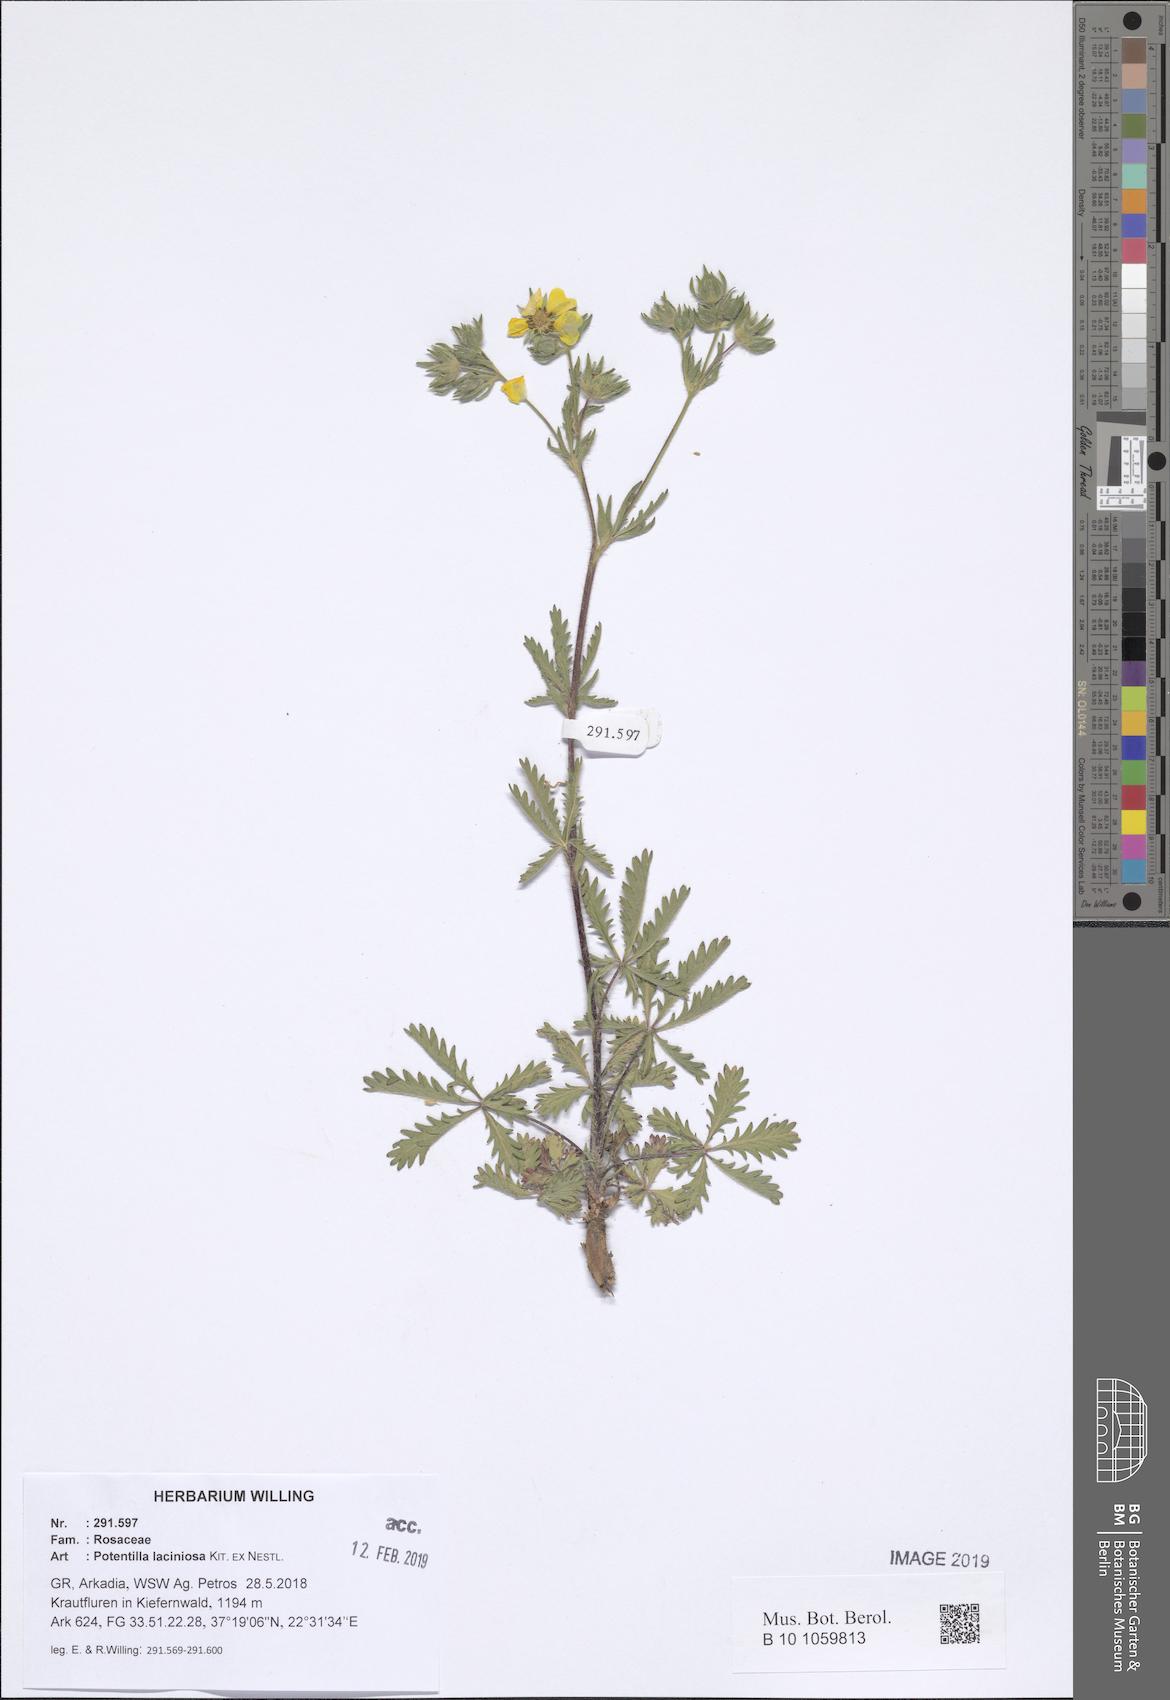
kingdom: Plantae
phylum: Tracheophyta
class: Magnoliopsida
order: Rosales
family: Rosaceae
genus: Potentilla
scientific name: Potentilla recta
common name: Sulphur cinquefoil
